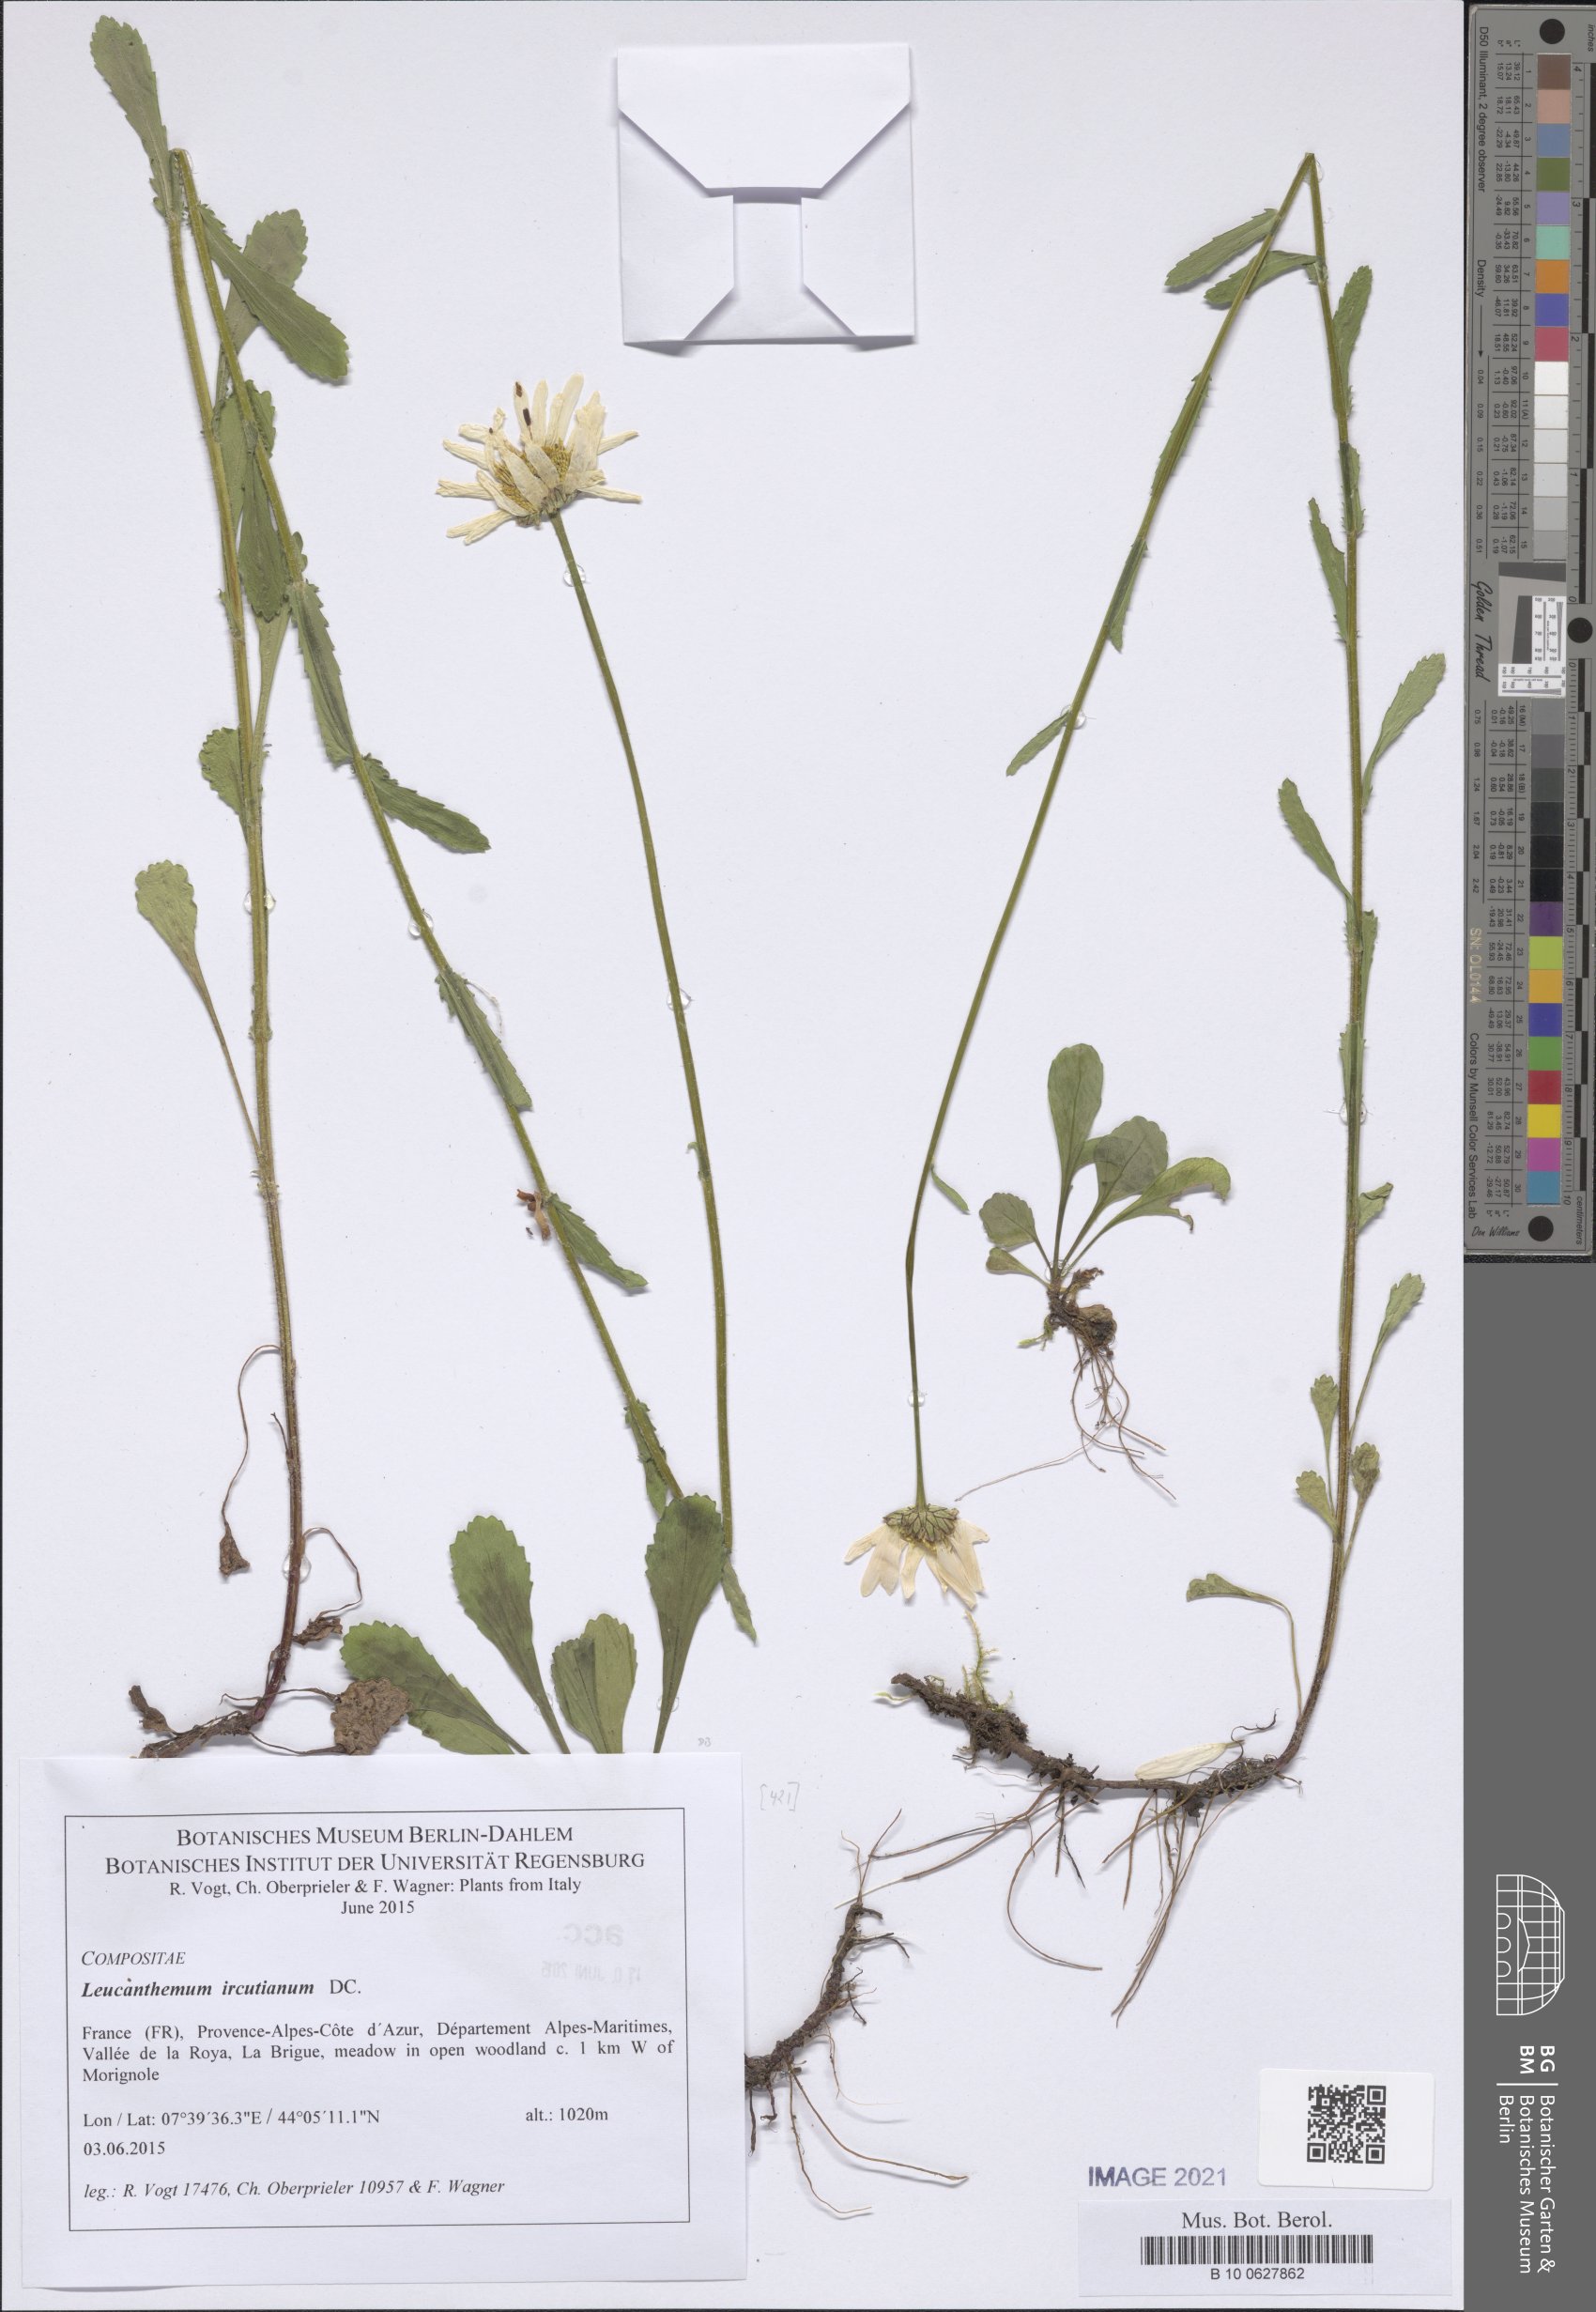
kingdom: Plantae
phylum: Tracheophyta
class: Magnoliopsida
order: Asterales
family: Asteraceae
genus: Leucanthemum
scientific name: Leucanthemum ircutianum
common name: Daisy
